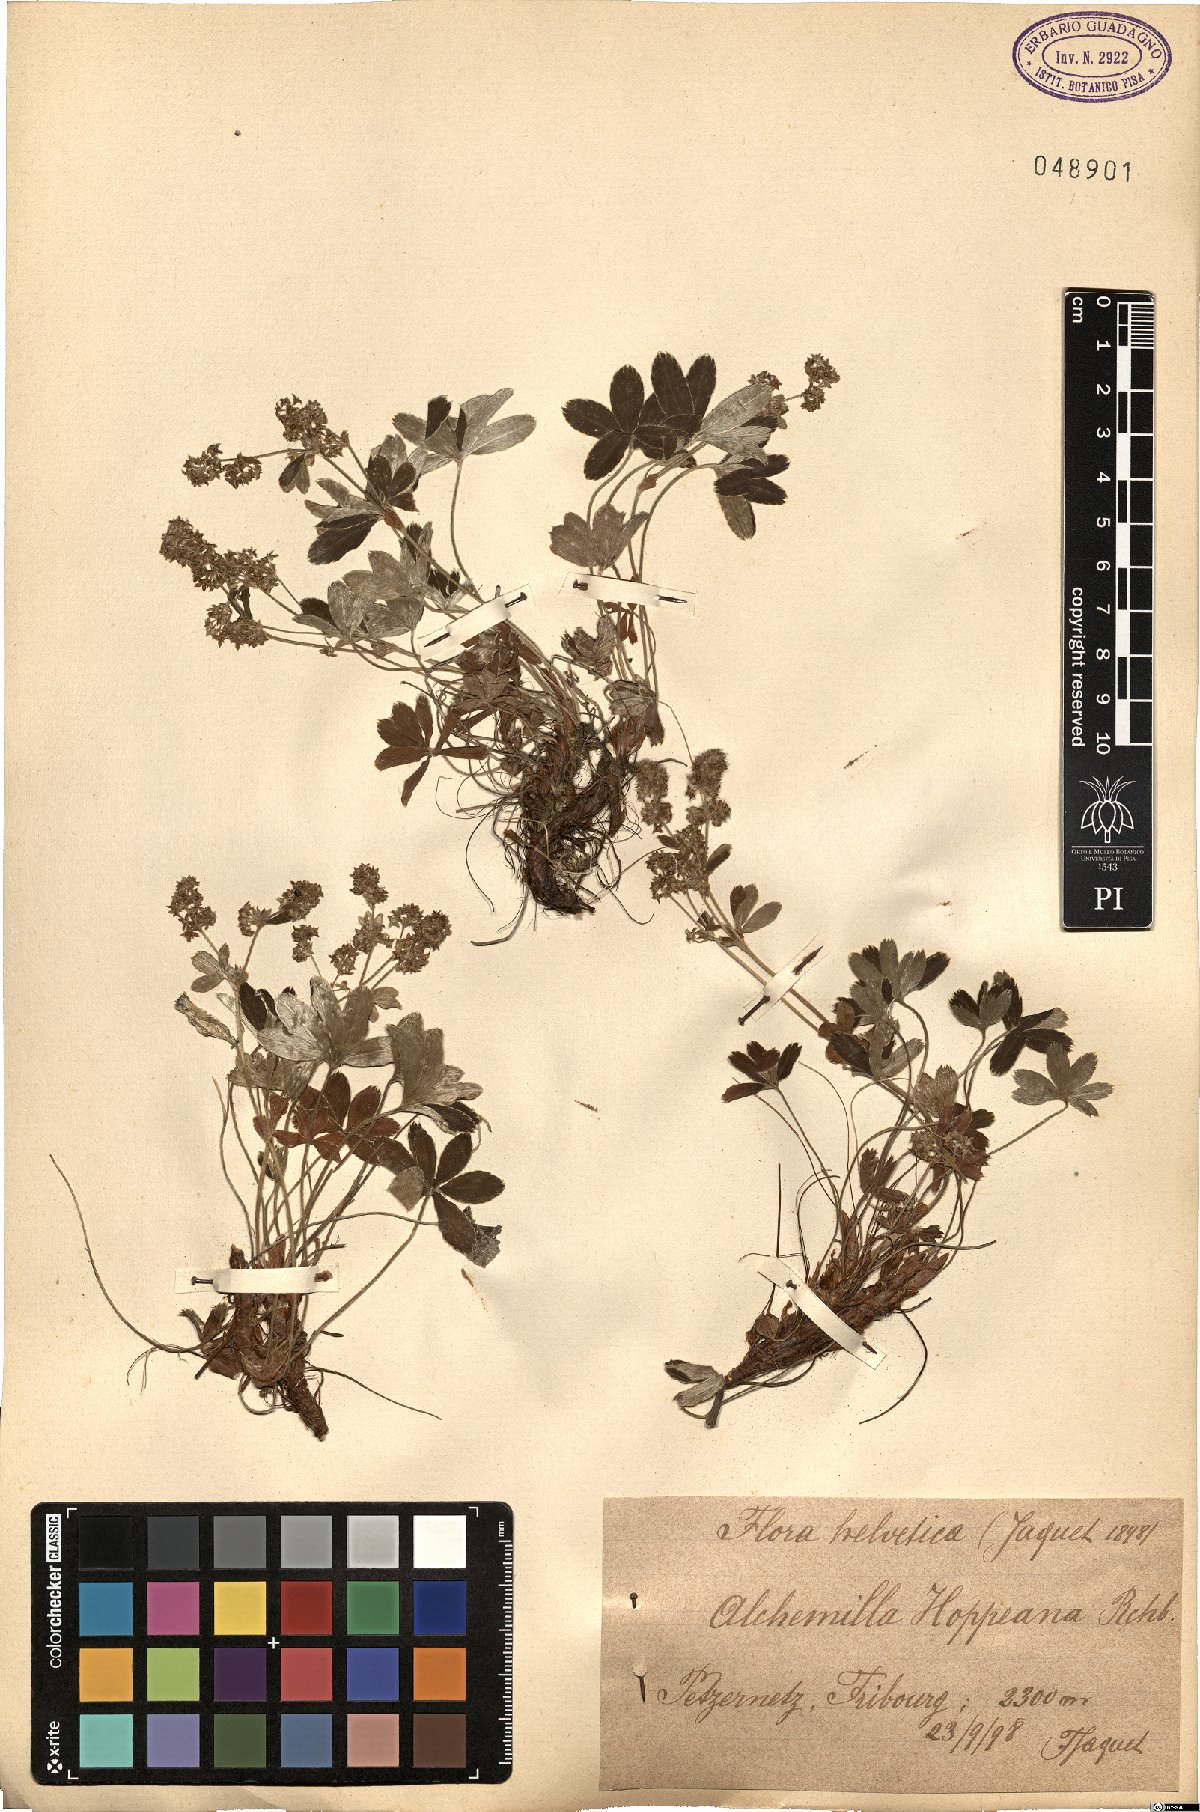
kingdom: Plantae
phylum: Tracheophyta
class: Magnoliopsida
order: Rosales
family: Rosaceae
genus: Alchemilla
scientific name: Alchemilla hoppeana
